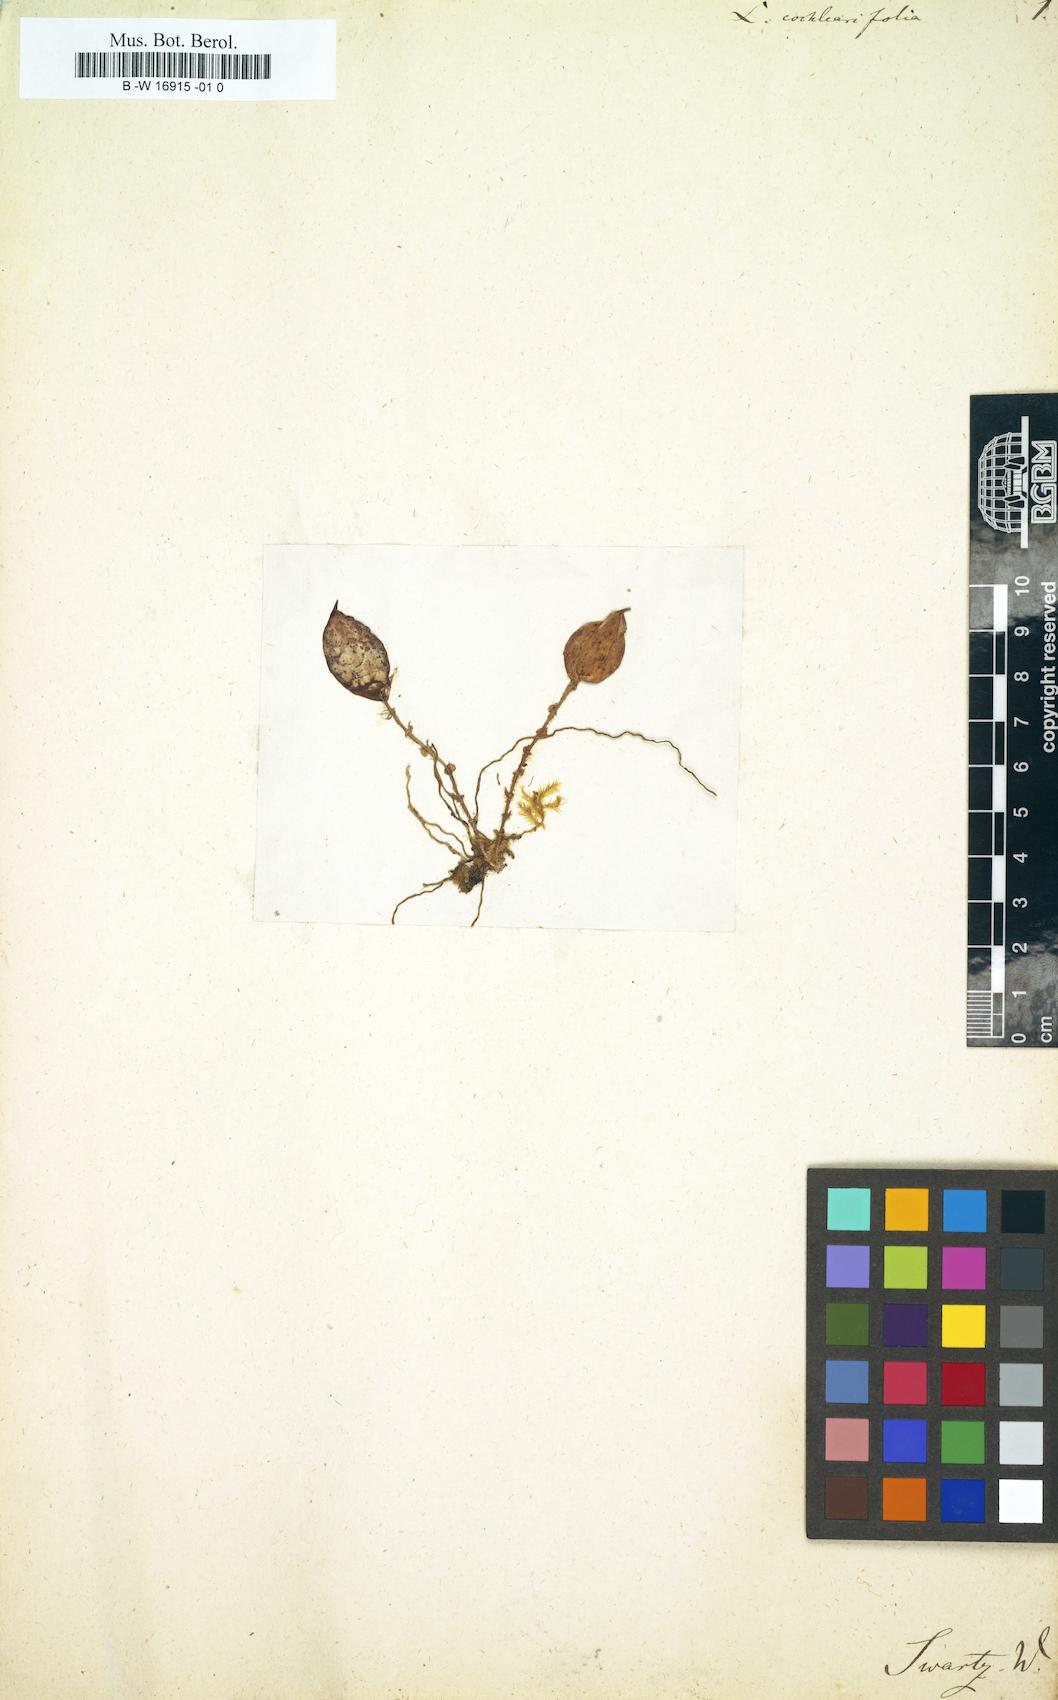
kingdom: Plantae
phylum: Tracheophyta
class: Liliopsida
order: Asparagales
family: Orchidaceae
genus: Lepanthes
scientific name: Lepanthes cochleariifolia
